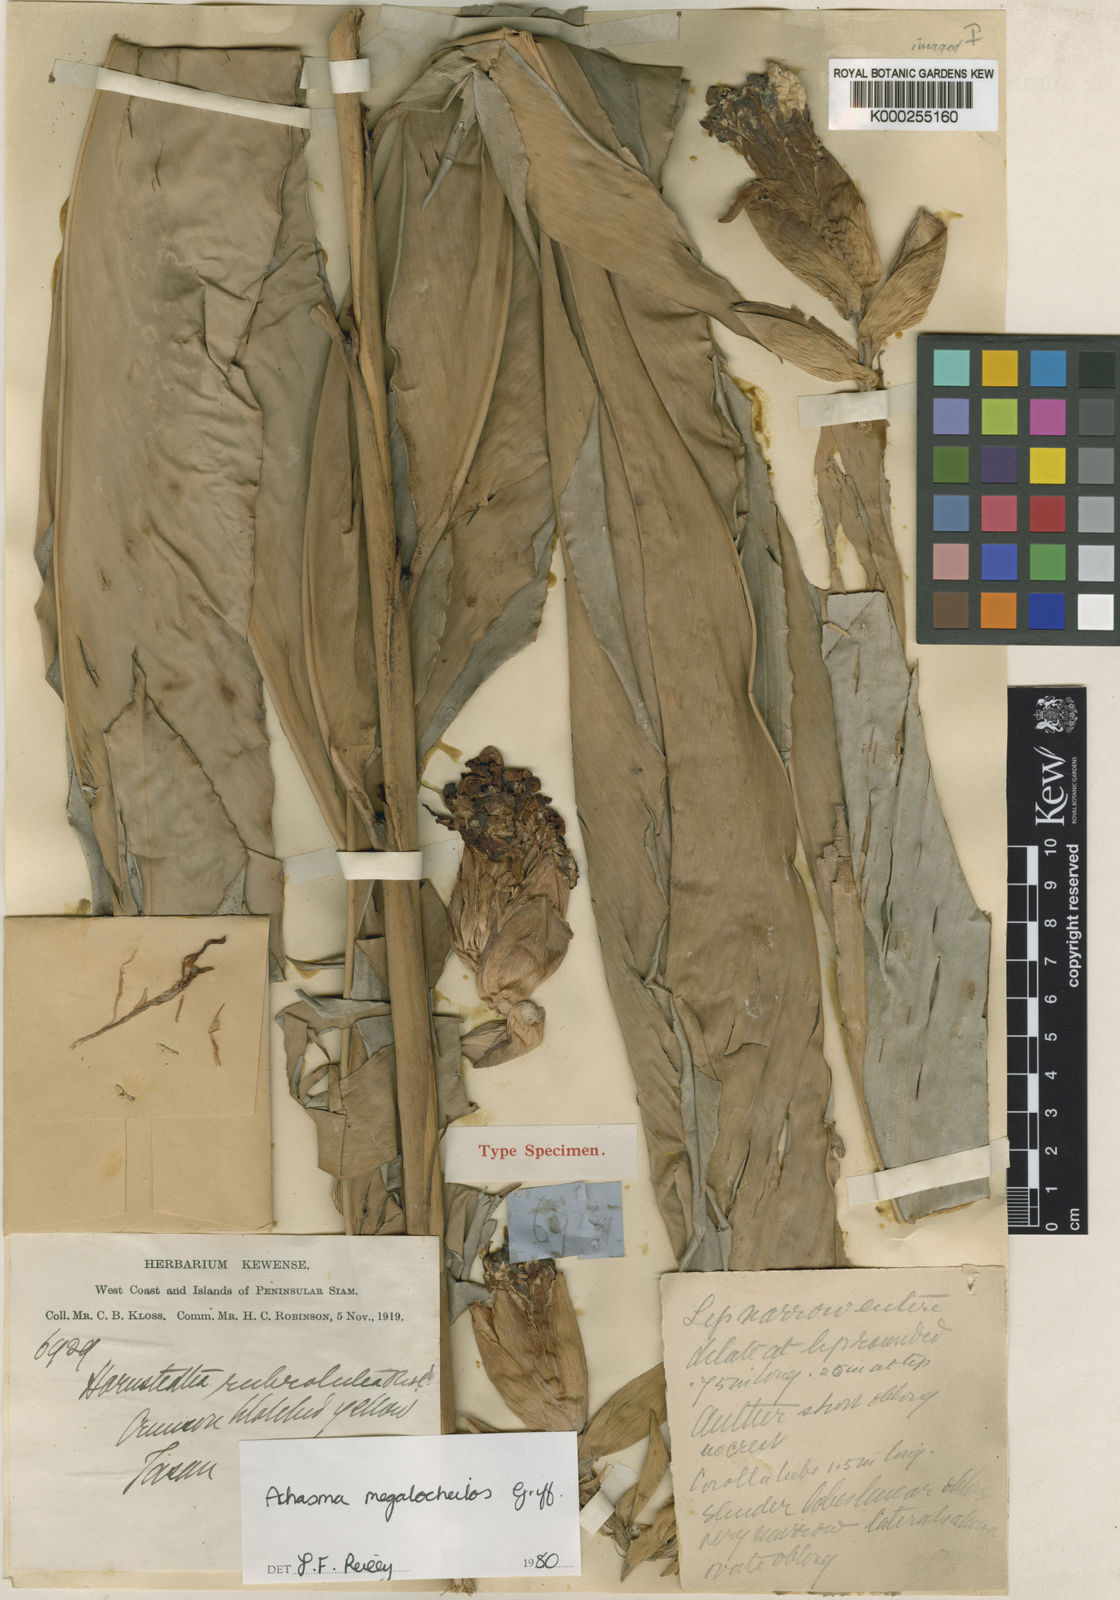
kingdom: Plantae
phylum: Tracheophyta
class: Liliopsida
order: Zingiberales
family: Zingiberaceae
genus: Etlingera
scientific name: Etlingera littoralis
